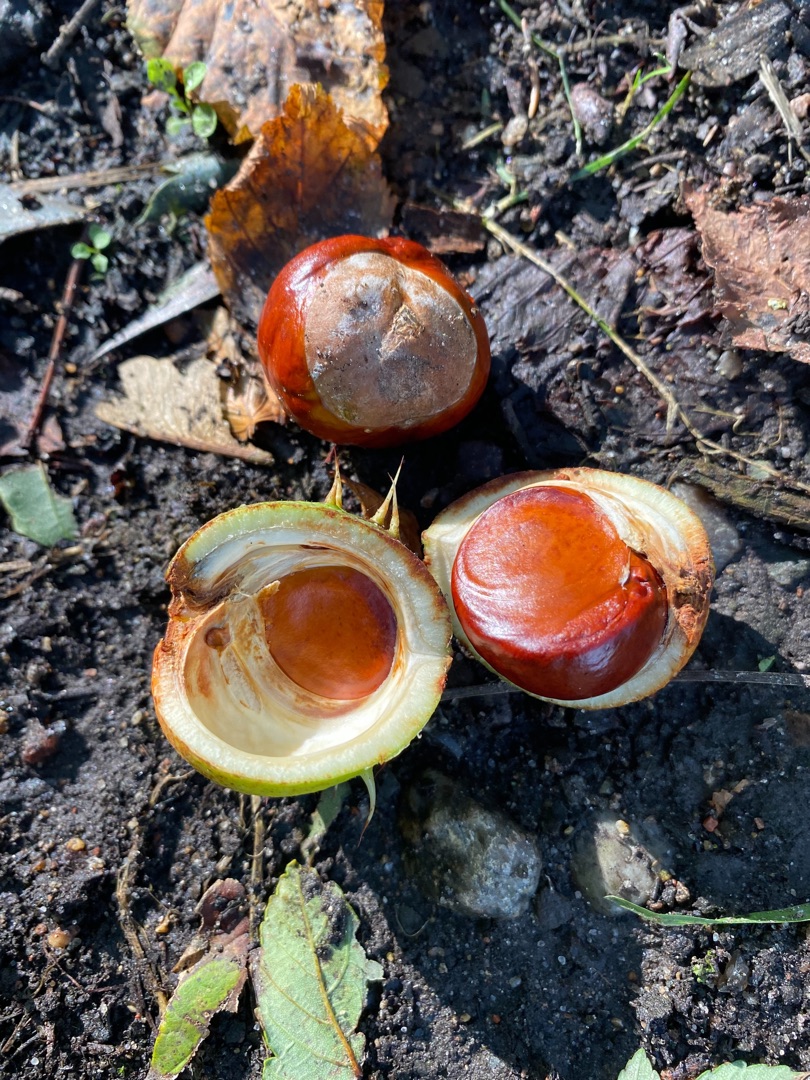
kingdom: Plantae
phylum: Tracheophyta
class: Magnoliopsida
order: Sapindales
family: Sapindaceae
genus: Aesculus
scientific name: Aesculus hippocastanum
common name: Hestekastanie
